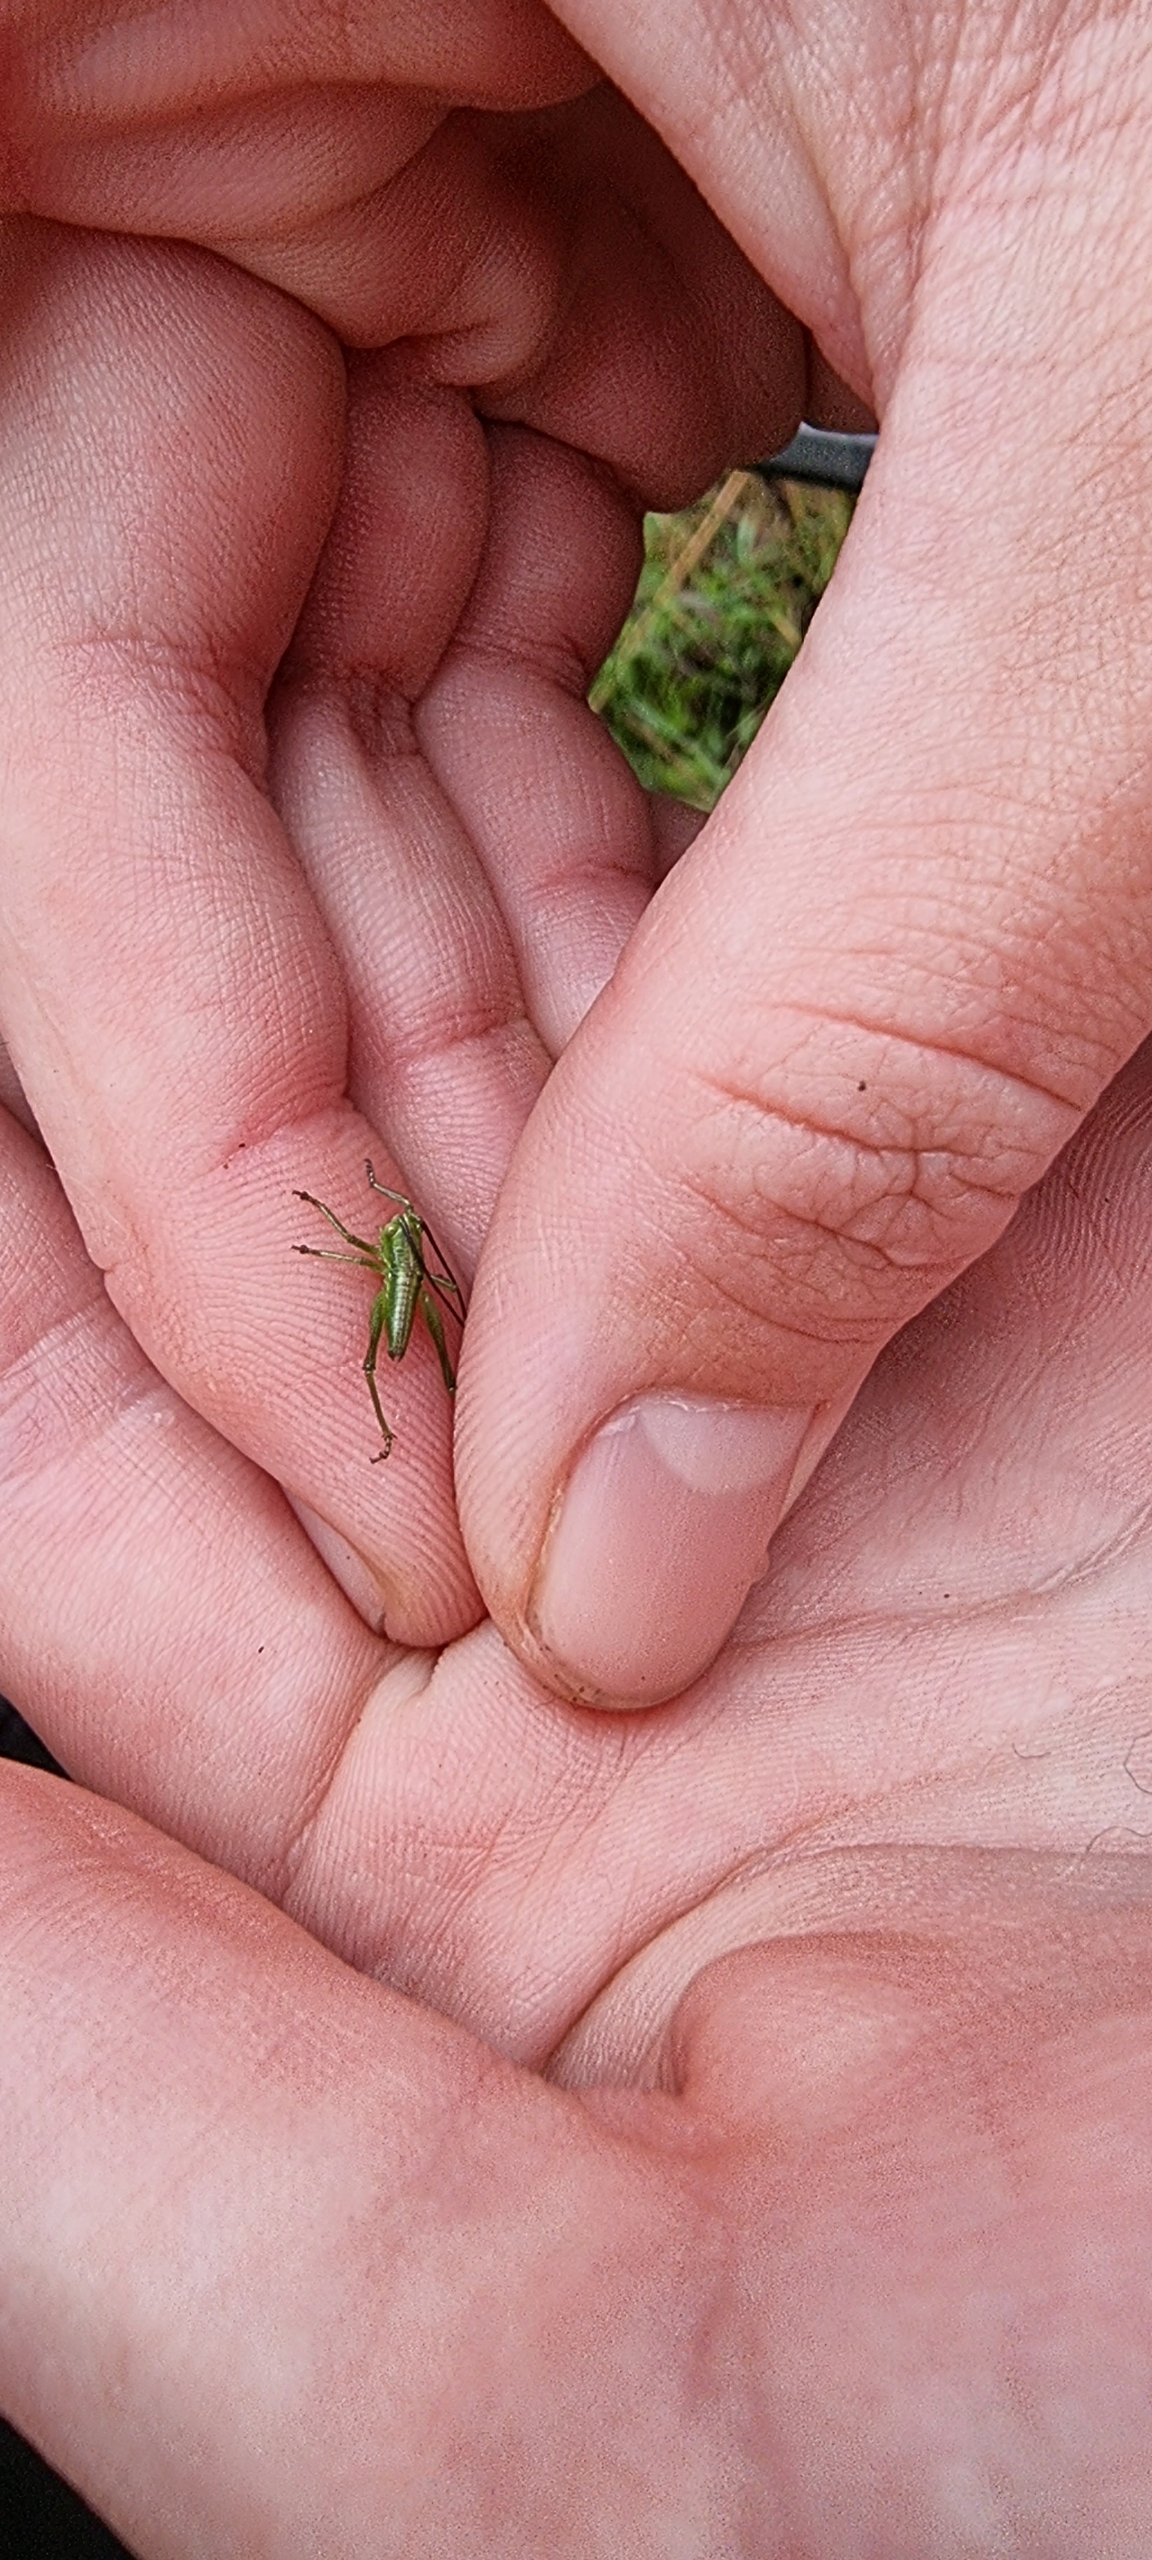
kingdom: Animalia
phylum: Arthropoda
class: Insecta
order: Orthoptera
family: Tettigoniidae
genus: Tettigonia
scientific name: Tettigonia viridissima
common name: Stor grøn løvgræshoppe
